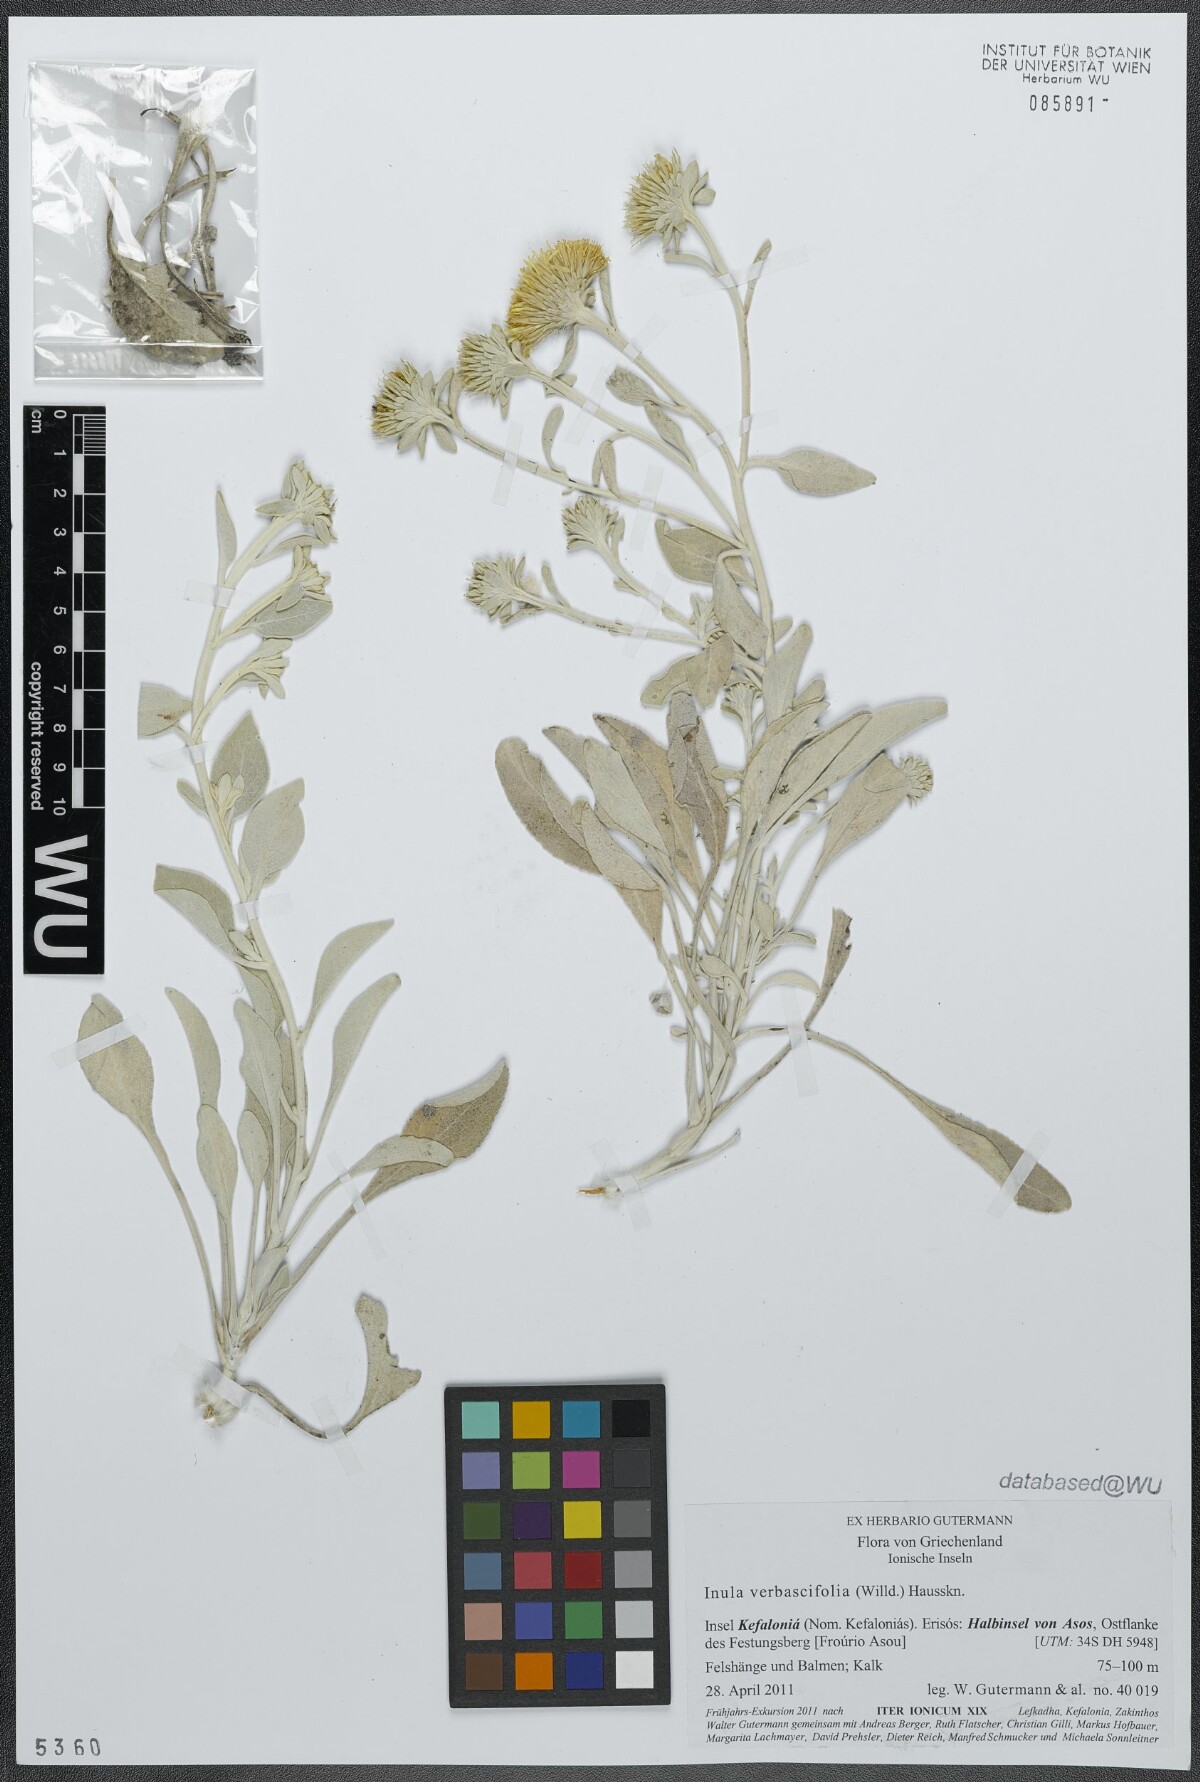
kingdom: Plantae
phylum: Tracheophyta
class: Magnoliopsida
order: Asterales
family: Asteraceae
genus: Pentanema
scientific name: Pentanema verbascifolium
